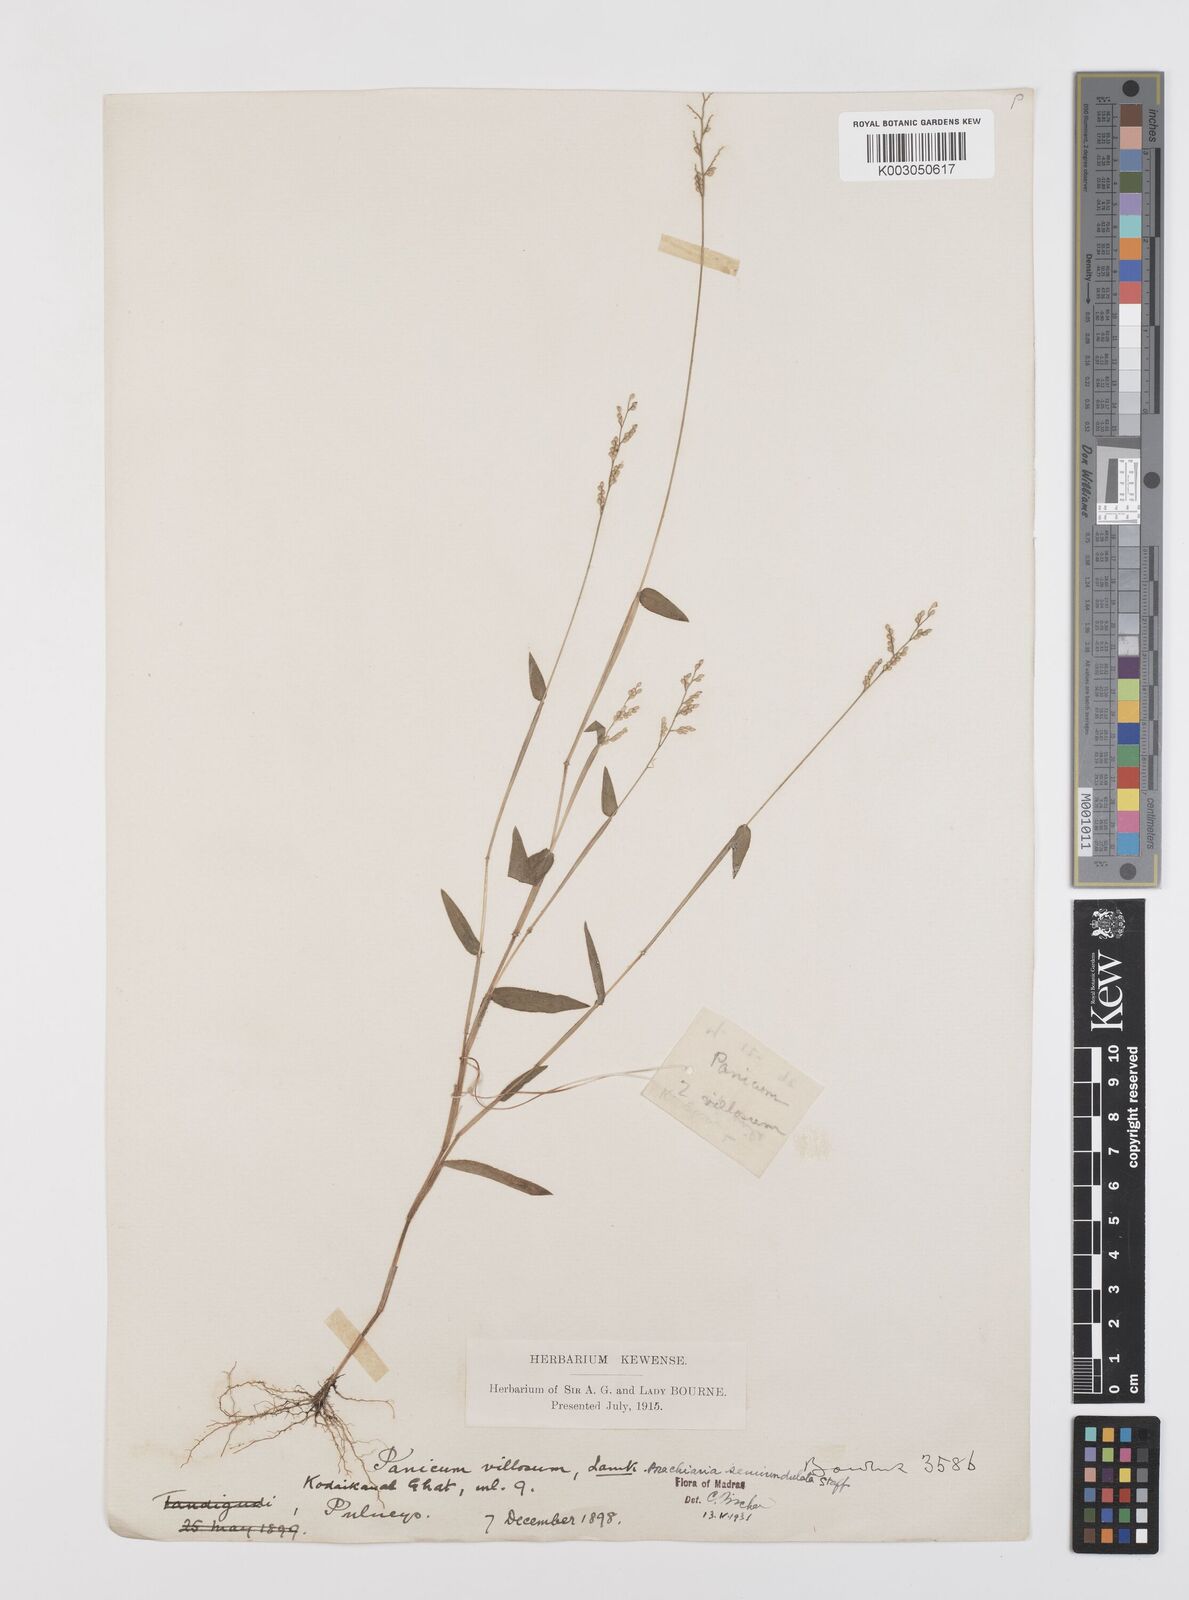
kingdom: Plantae
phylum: Tracheophyta
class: Liliopsida
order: Poales
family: Poaceae
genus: Urochloa
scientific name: Urochloa semiundulata
